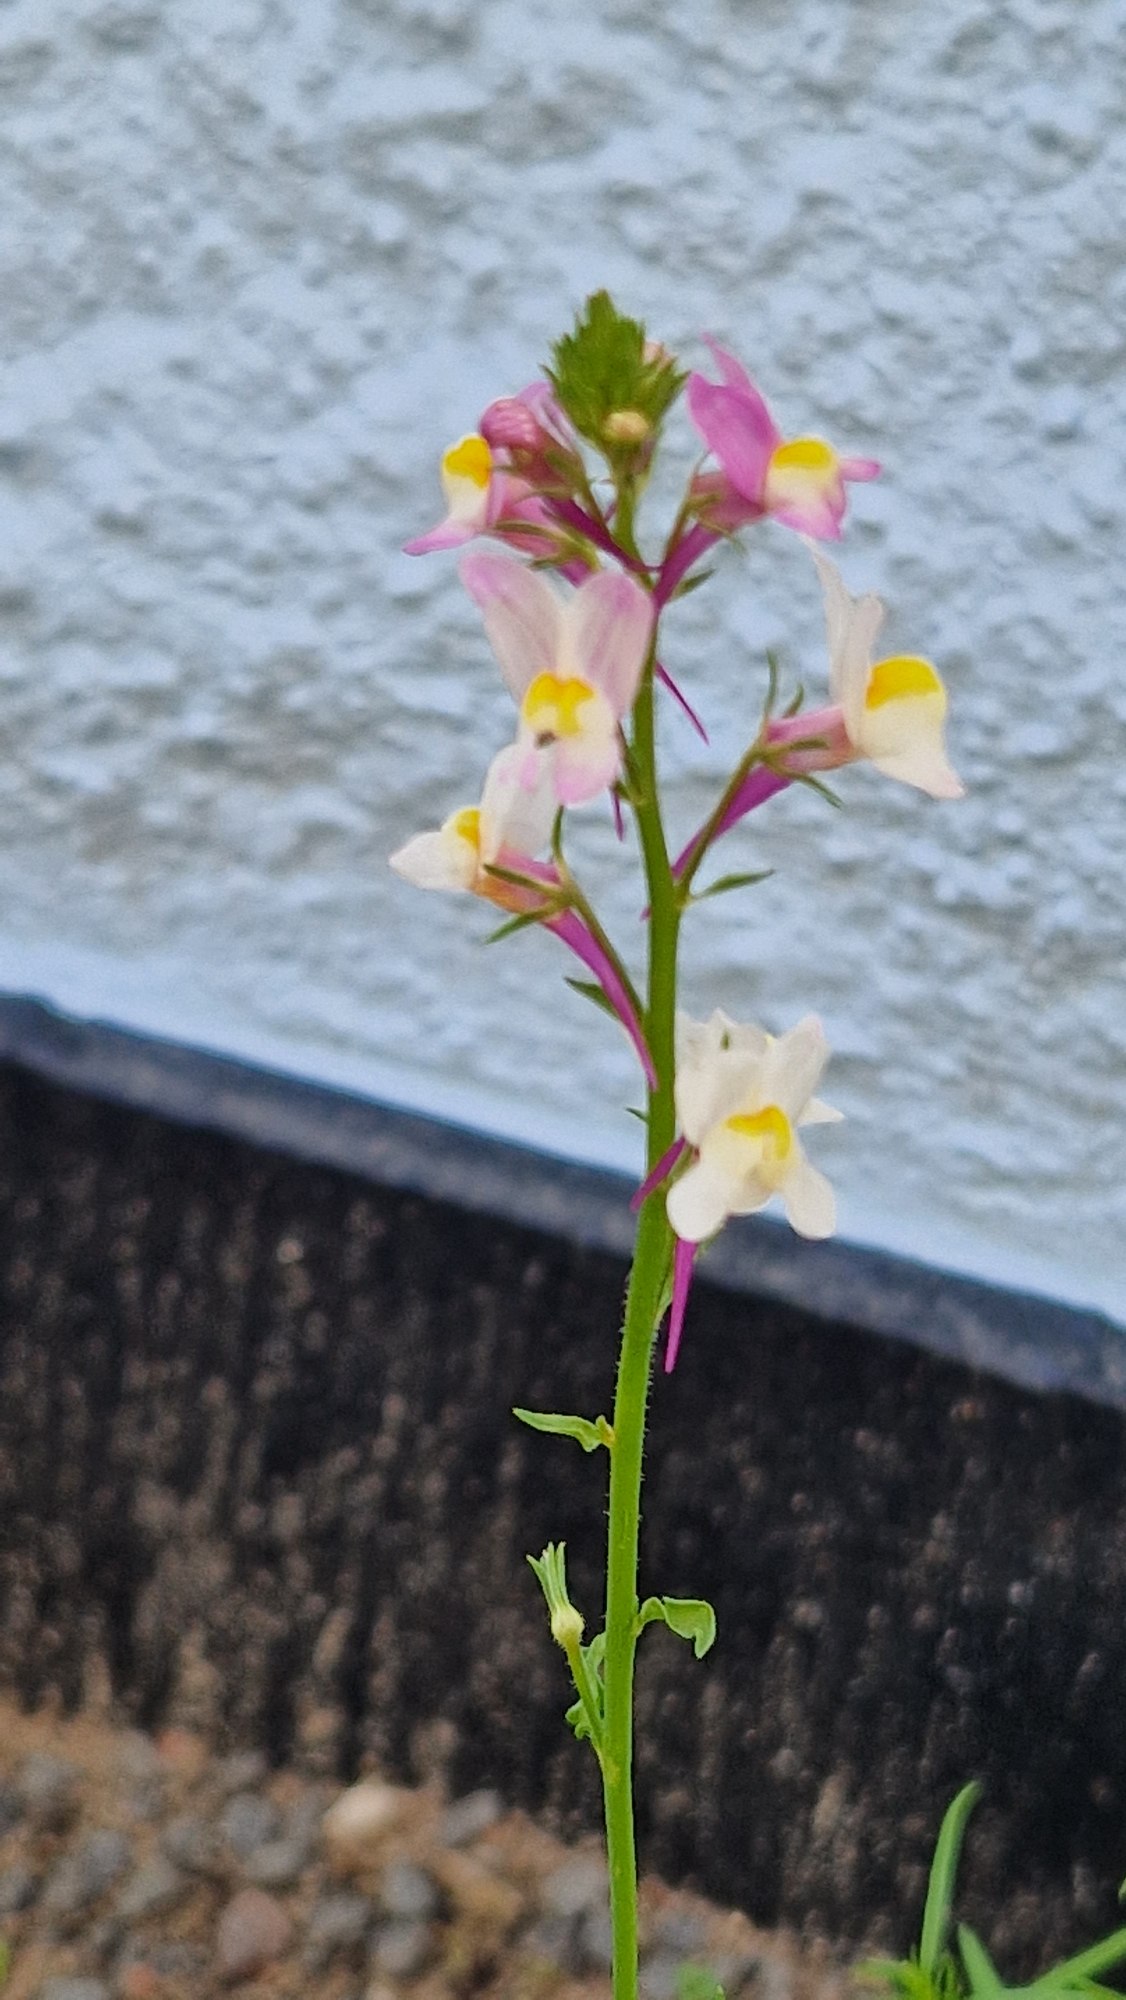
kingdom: Plantae
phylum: Tracheophyta
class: Magnoliopsida
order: Lamiales
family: Plantaginaceae
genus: Linaria
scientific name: Linaria maroccana
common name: Marokkansk torskemund
